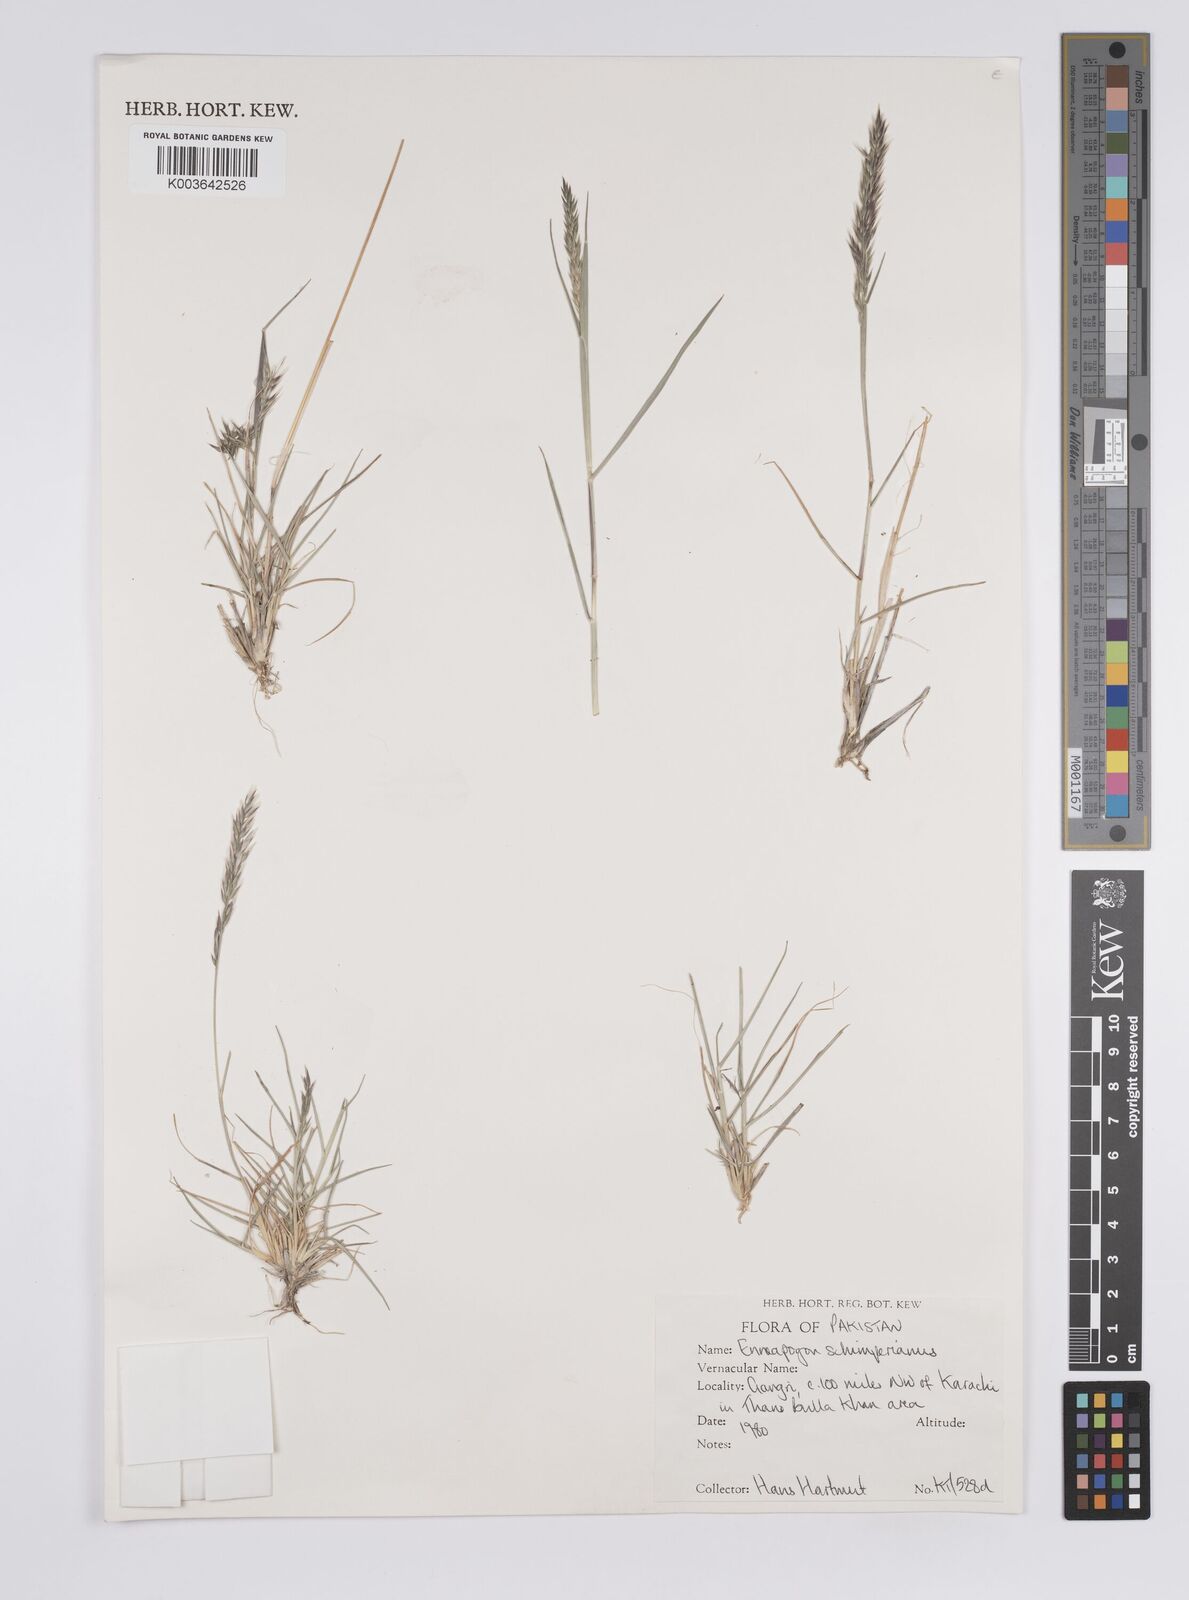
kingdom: Plantae
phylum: Tracheophyta
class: Liliopsida
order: Poales
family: Poaceae
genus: Enneapogon
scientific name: Enneapogon persicus
